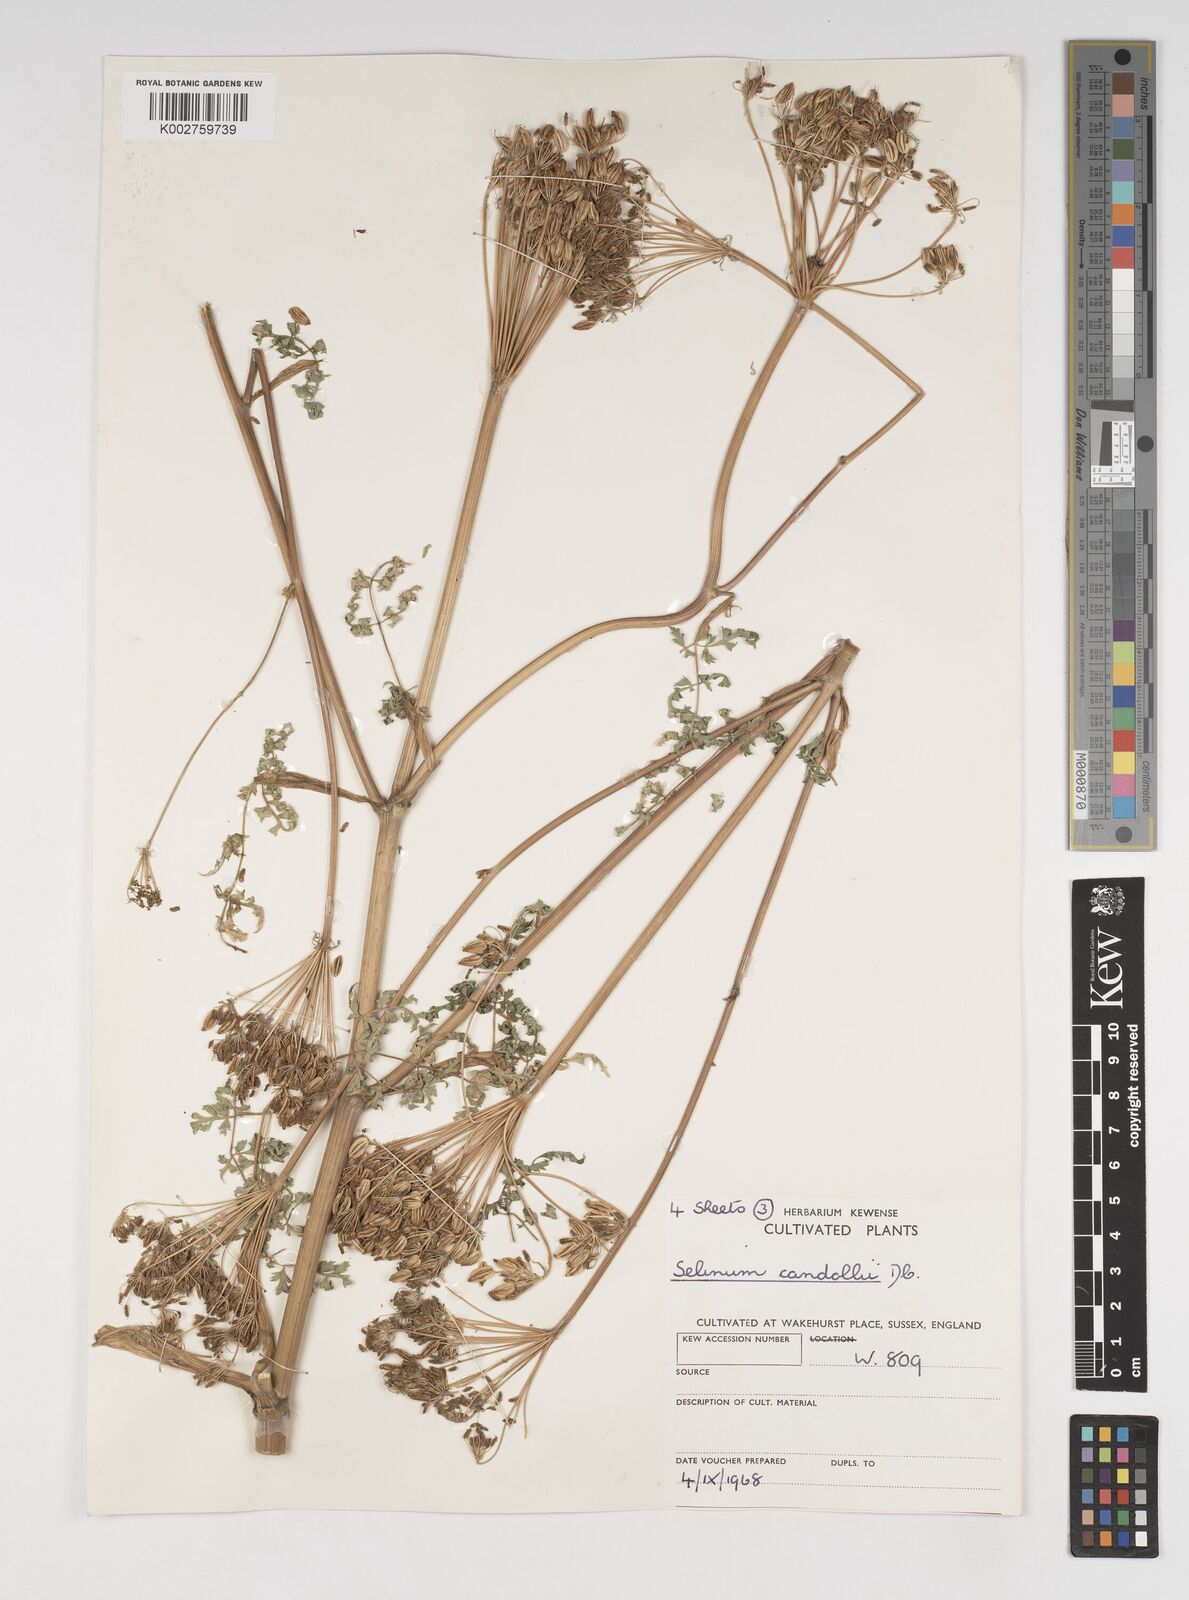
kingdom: Plantae
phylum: Tracheophyta
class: Magnoliopsida
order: Apiales
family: Apiaceae
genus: Oreocome
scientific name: Oreocome candollei
